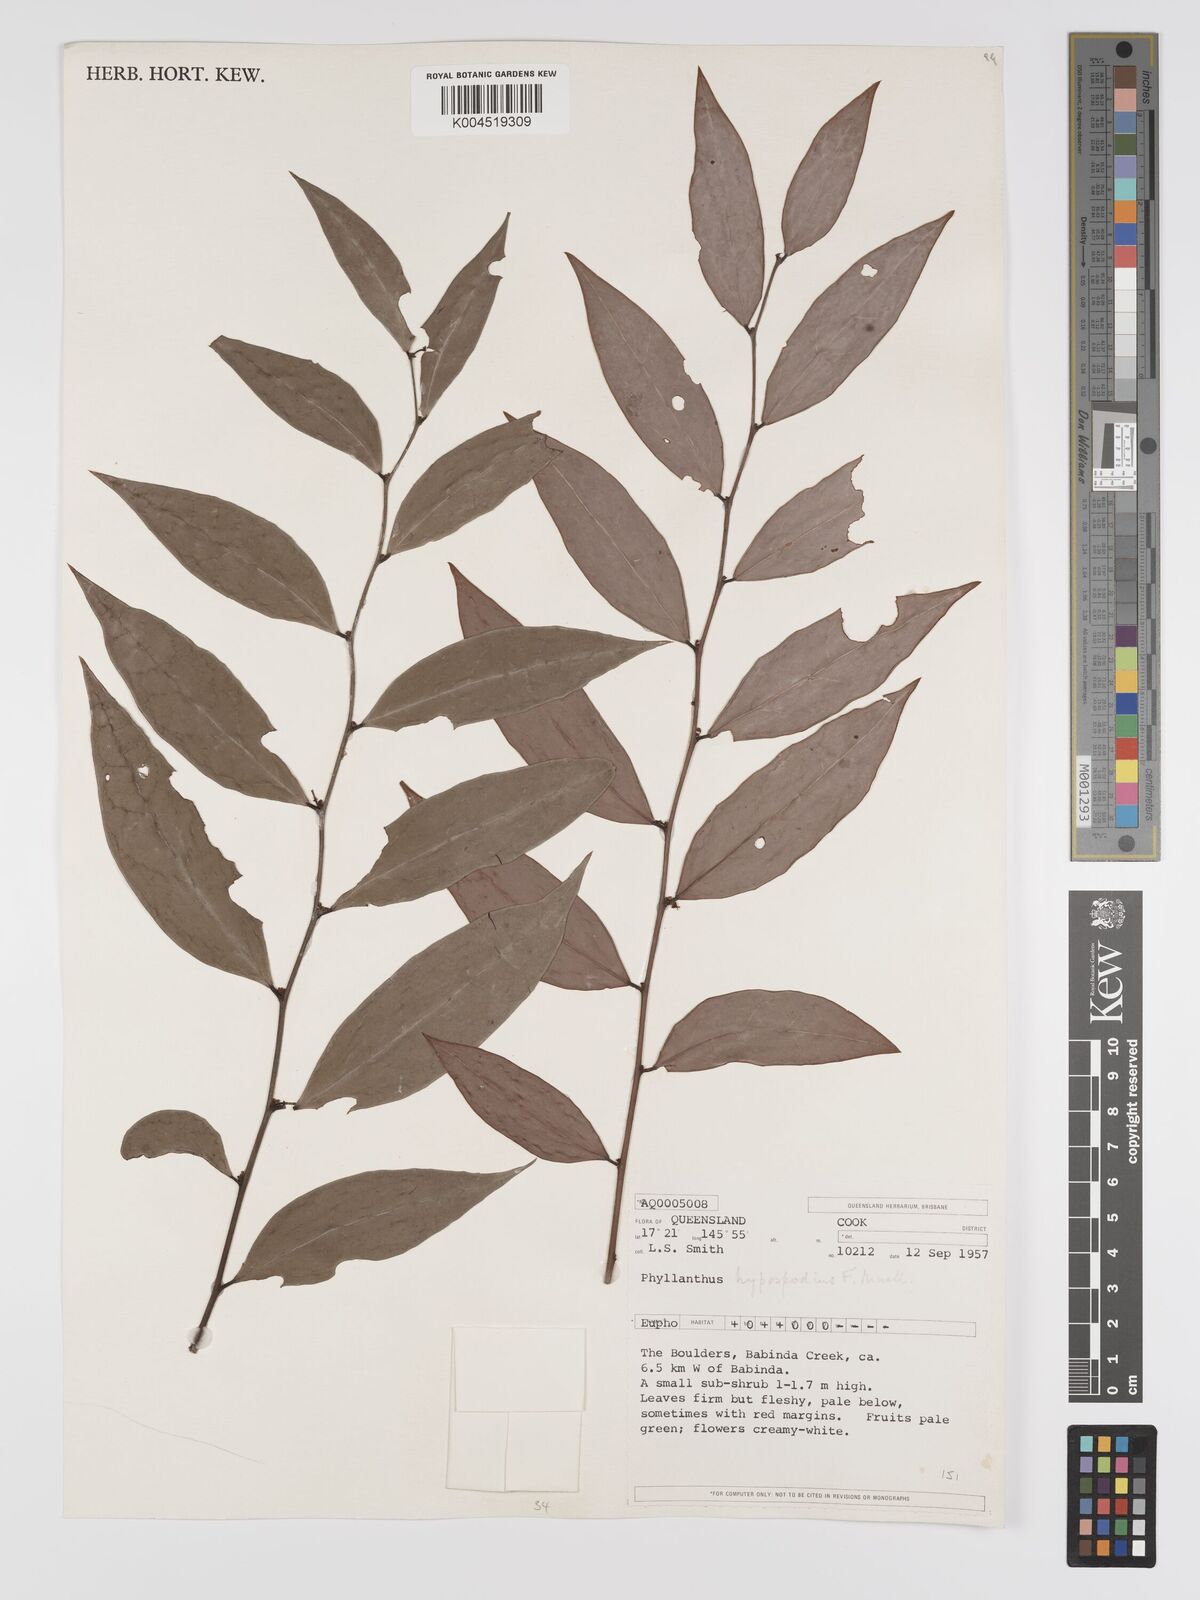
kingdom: Plantae
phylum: Tracheophyta
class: Magnoliopsida
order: Malpighiales
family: Phyllanthaceae
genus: Phyllanthus
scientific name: Phyllanthus hypospodius
